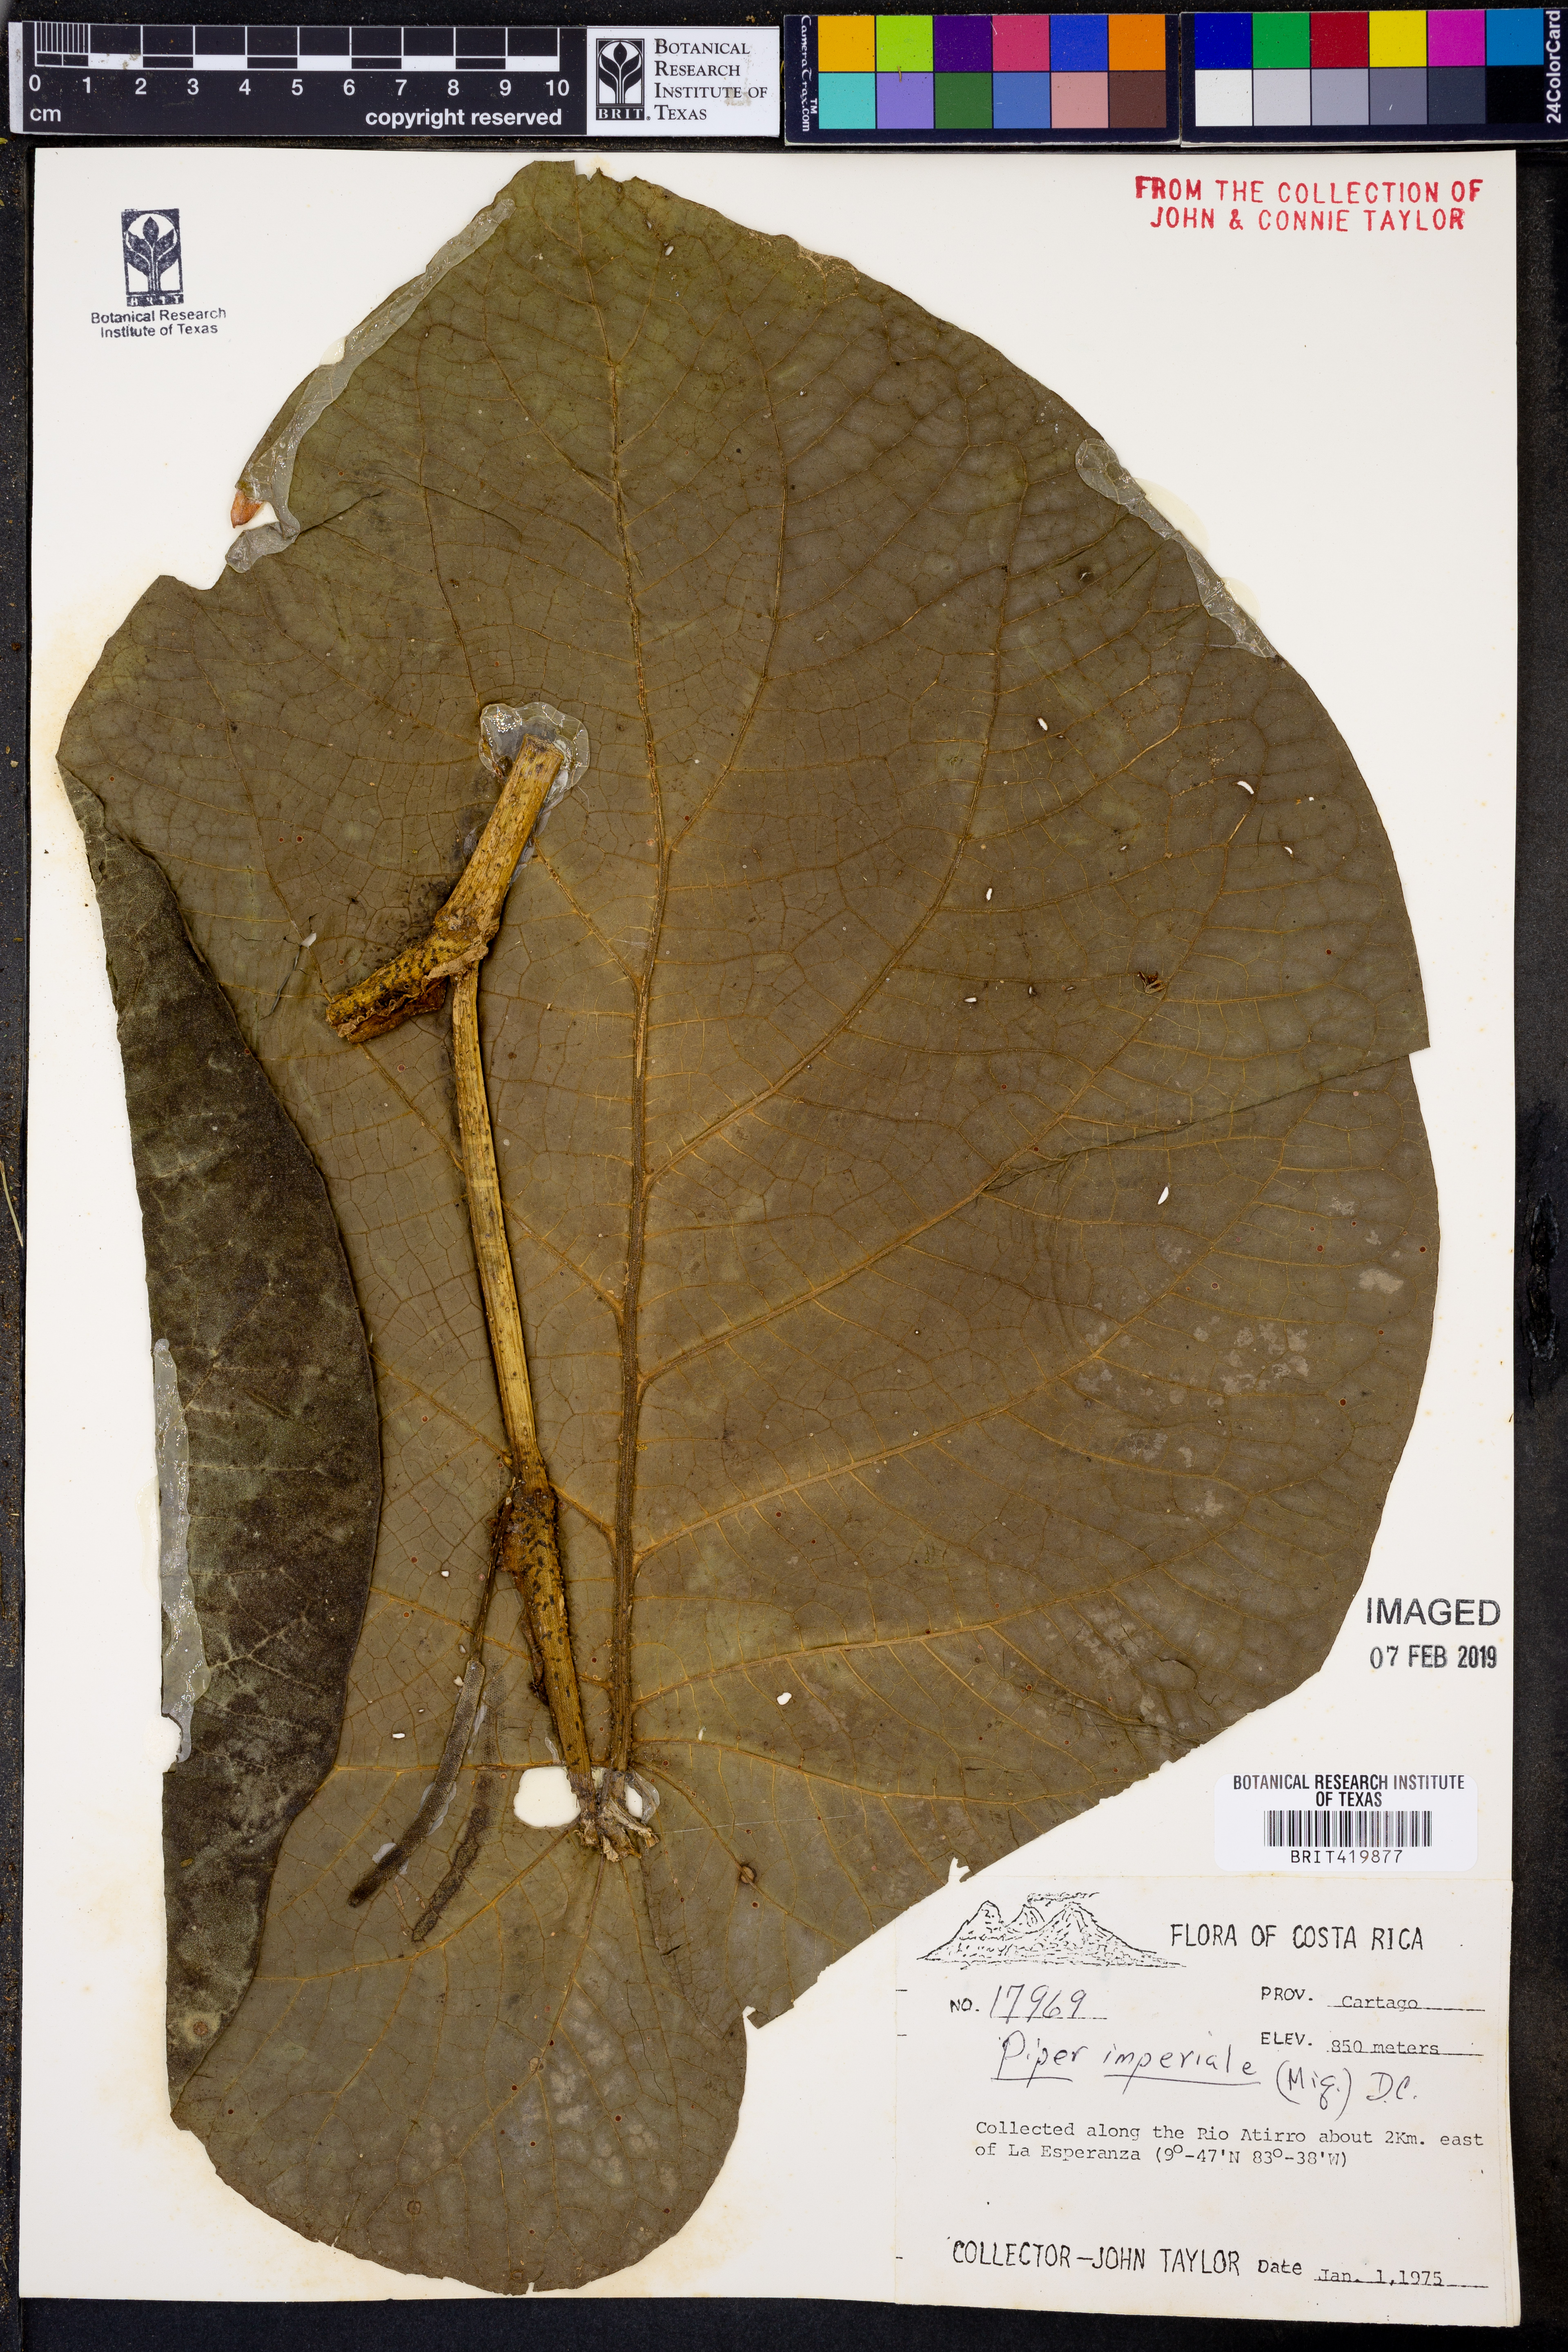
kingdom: Plantae
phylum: Tracheophyta
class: Magnoliopsida
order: Piperales
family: Piperaceae
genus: Piper
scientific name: Piper imperiale
